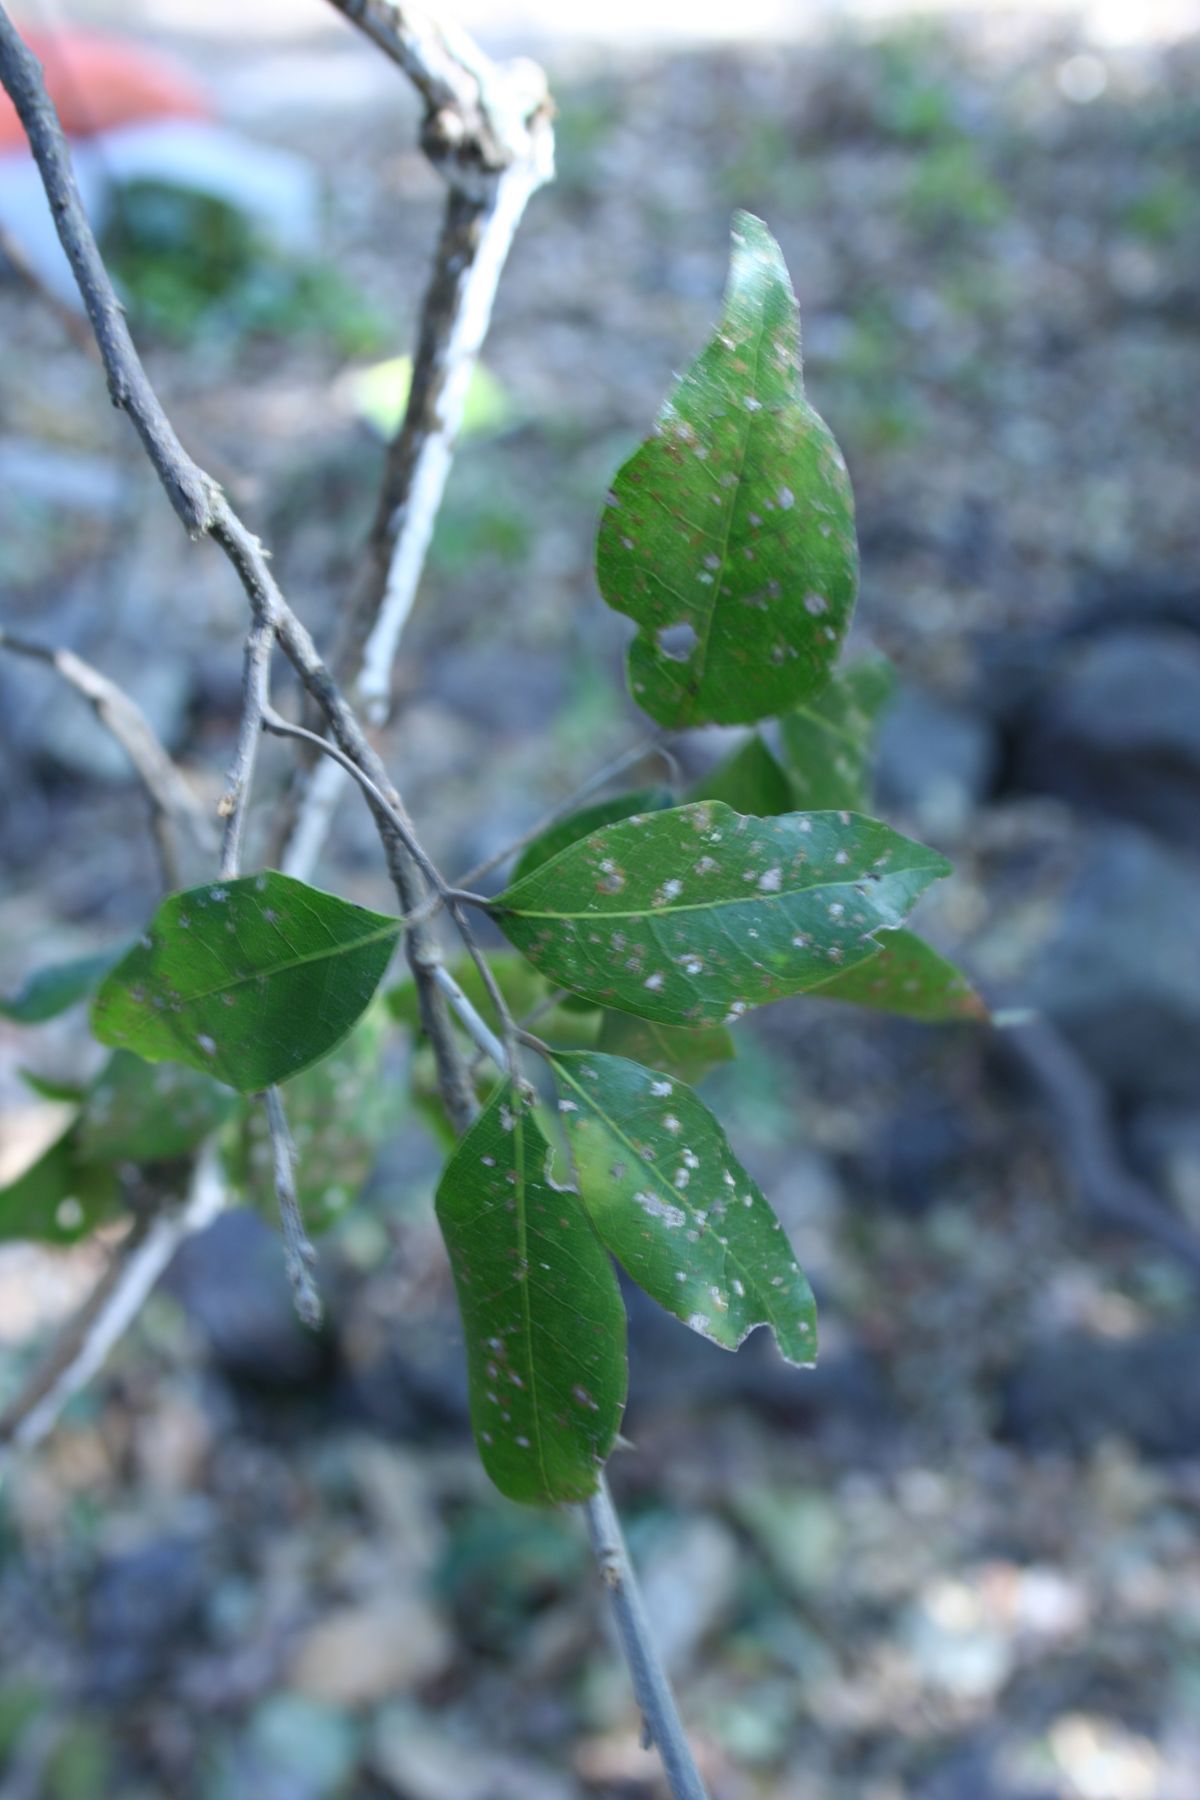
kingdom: Plantae
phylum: Tracheophyta
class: Magnoliopsida
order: Sapindales
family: Sapindaceae
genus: Melicoccus
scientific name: Melicoccus oliviformis
